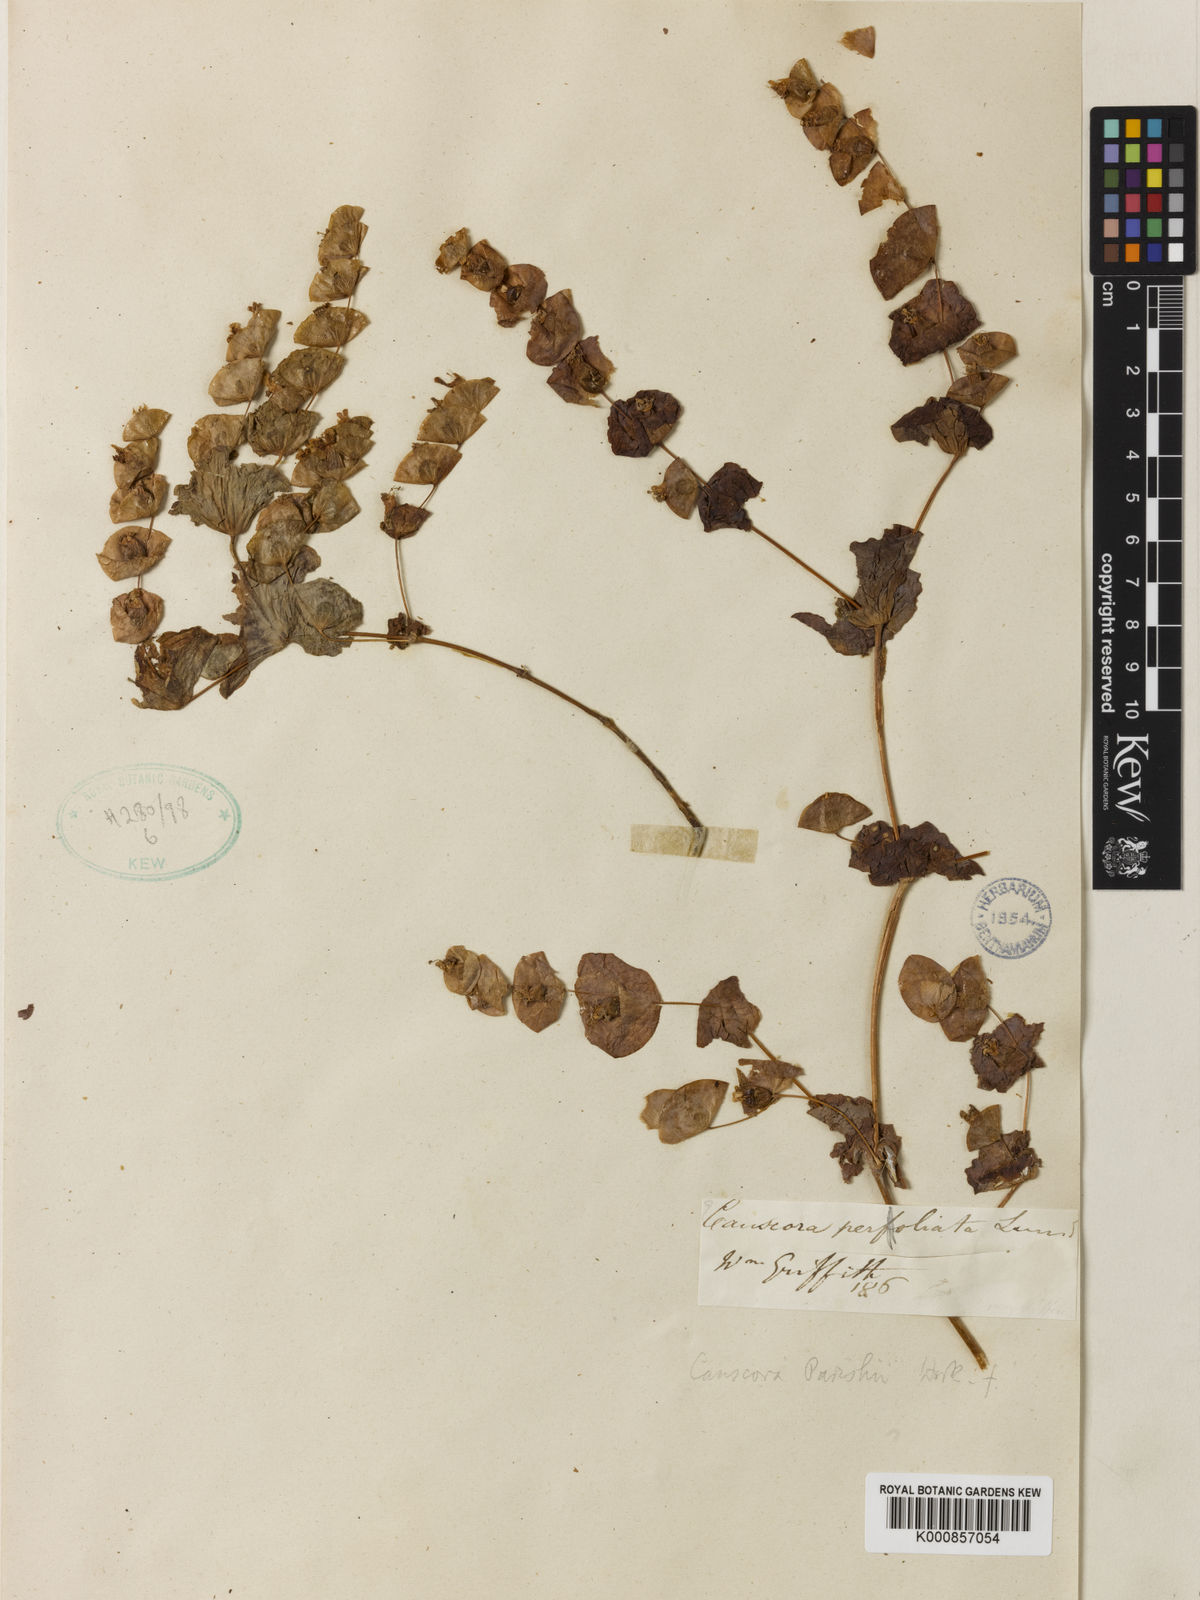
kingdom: Plantae
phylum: Tracheophyta
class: Magnoliopsida
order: Gentianales
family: Gentianaceae
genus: Phyllocyclus
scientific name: Phyllocyclus parishii
